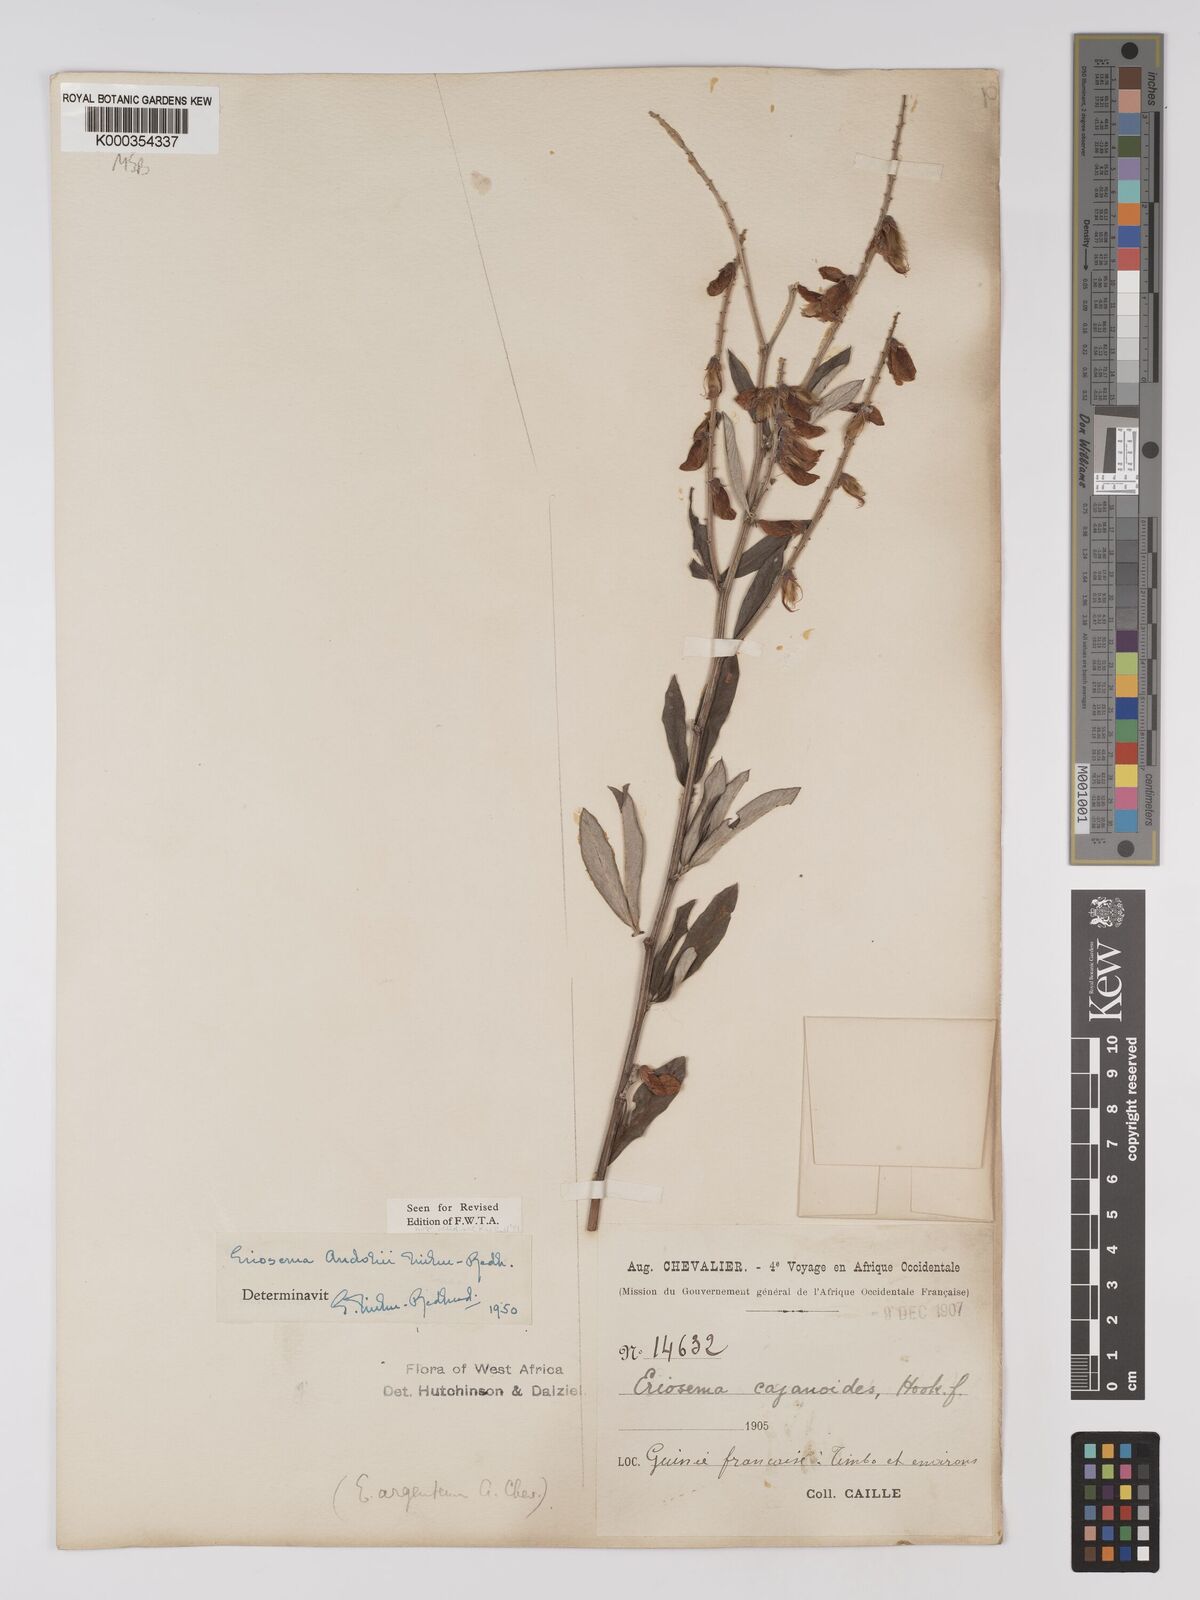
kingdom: Plantae
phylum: Tracheophyta
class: Magnoliopsida
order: Fabales
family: Fabaceae
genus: Eriosema
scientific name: Eriosema andohii
